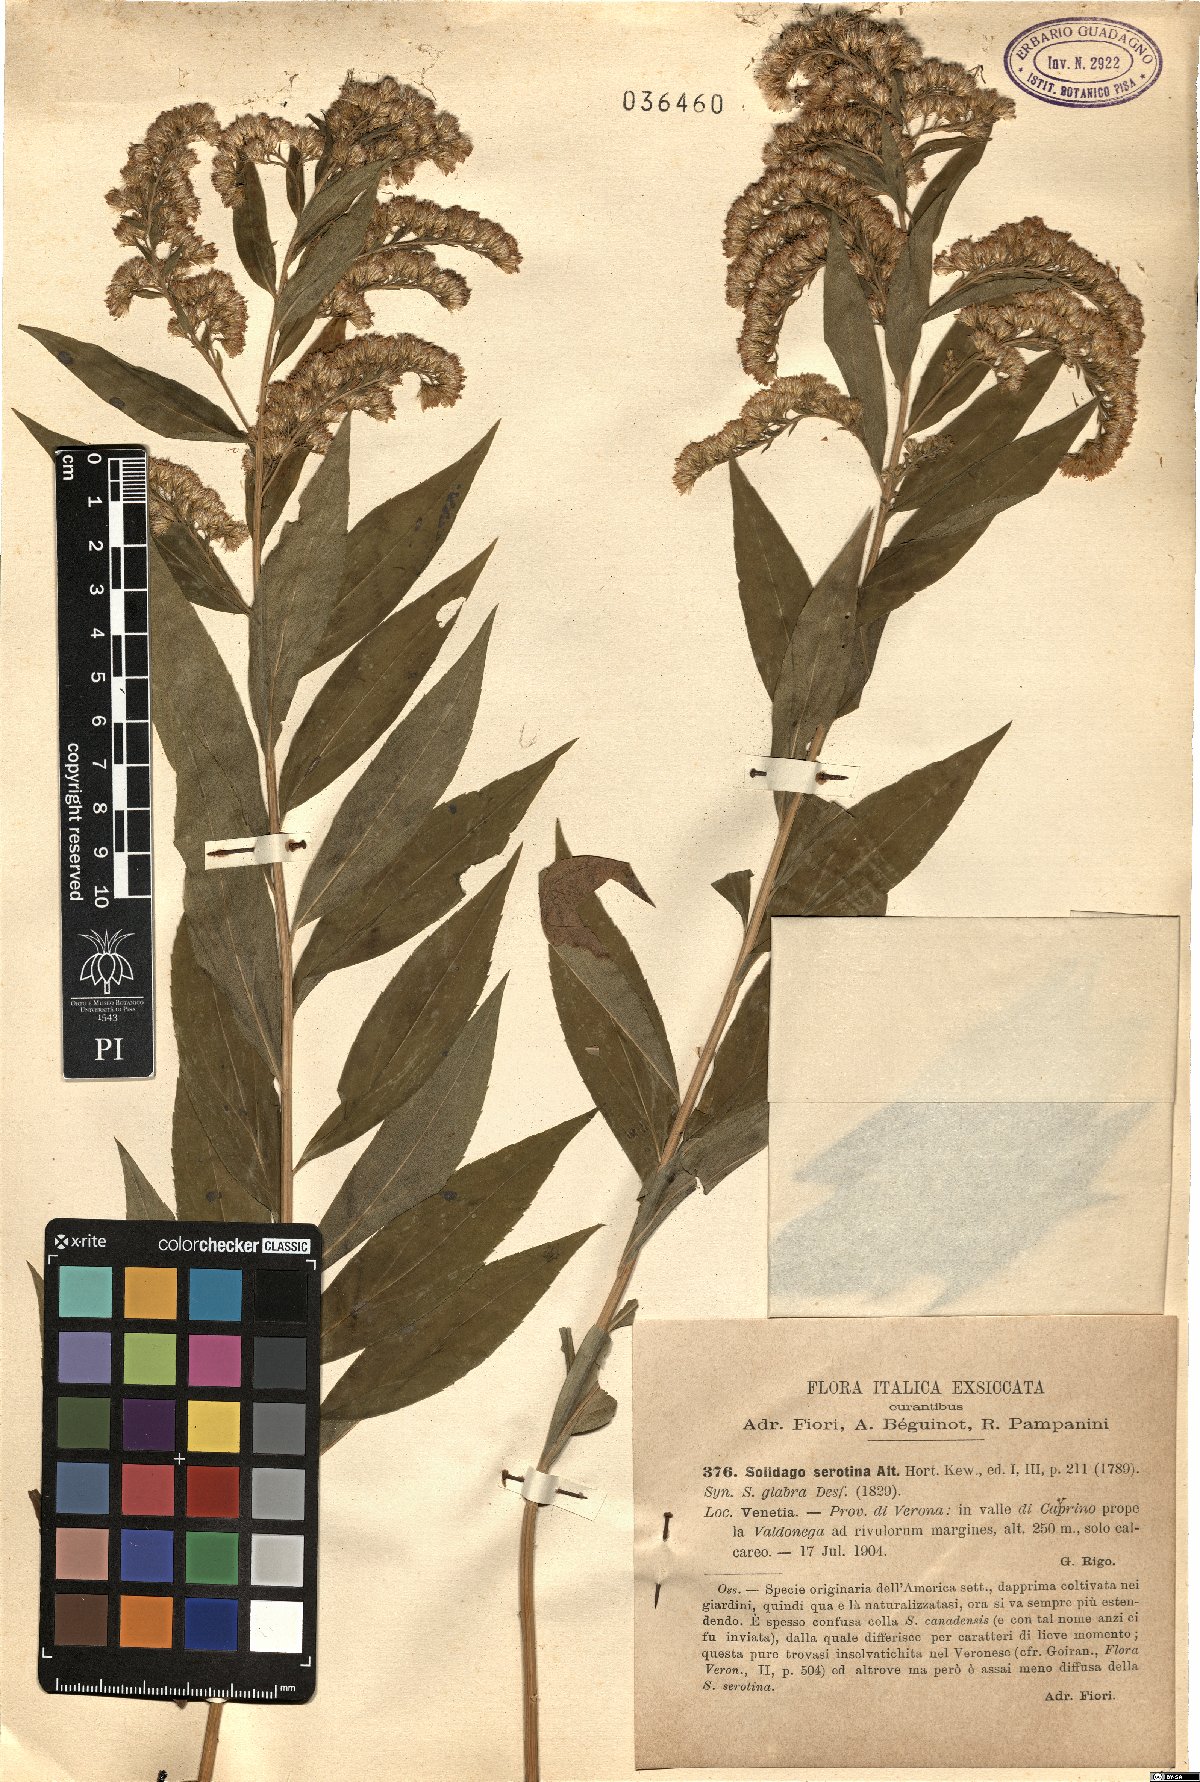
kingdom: Plantae
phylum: Tracheophyta
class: Magnoliopsida
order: Asterales
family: Asteraceae
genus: Solidago
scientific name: Solidago gigantea
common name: Giant goldenrod
